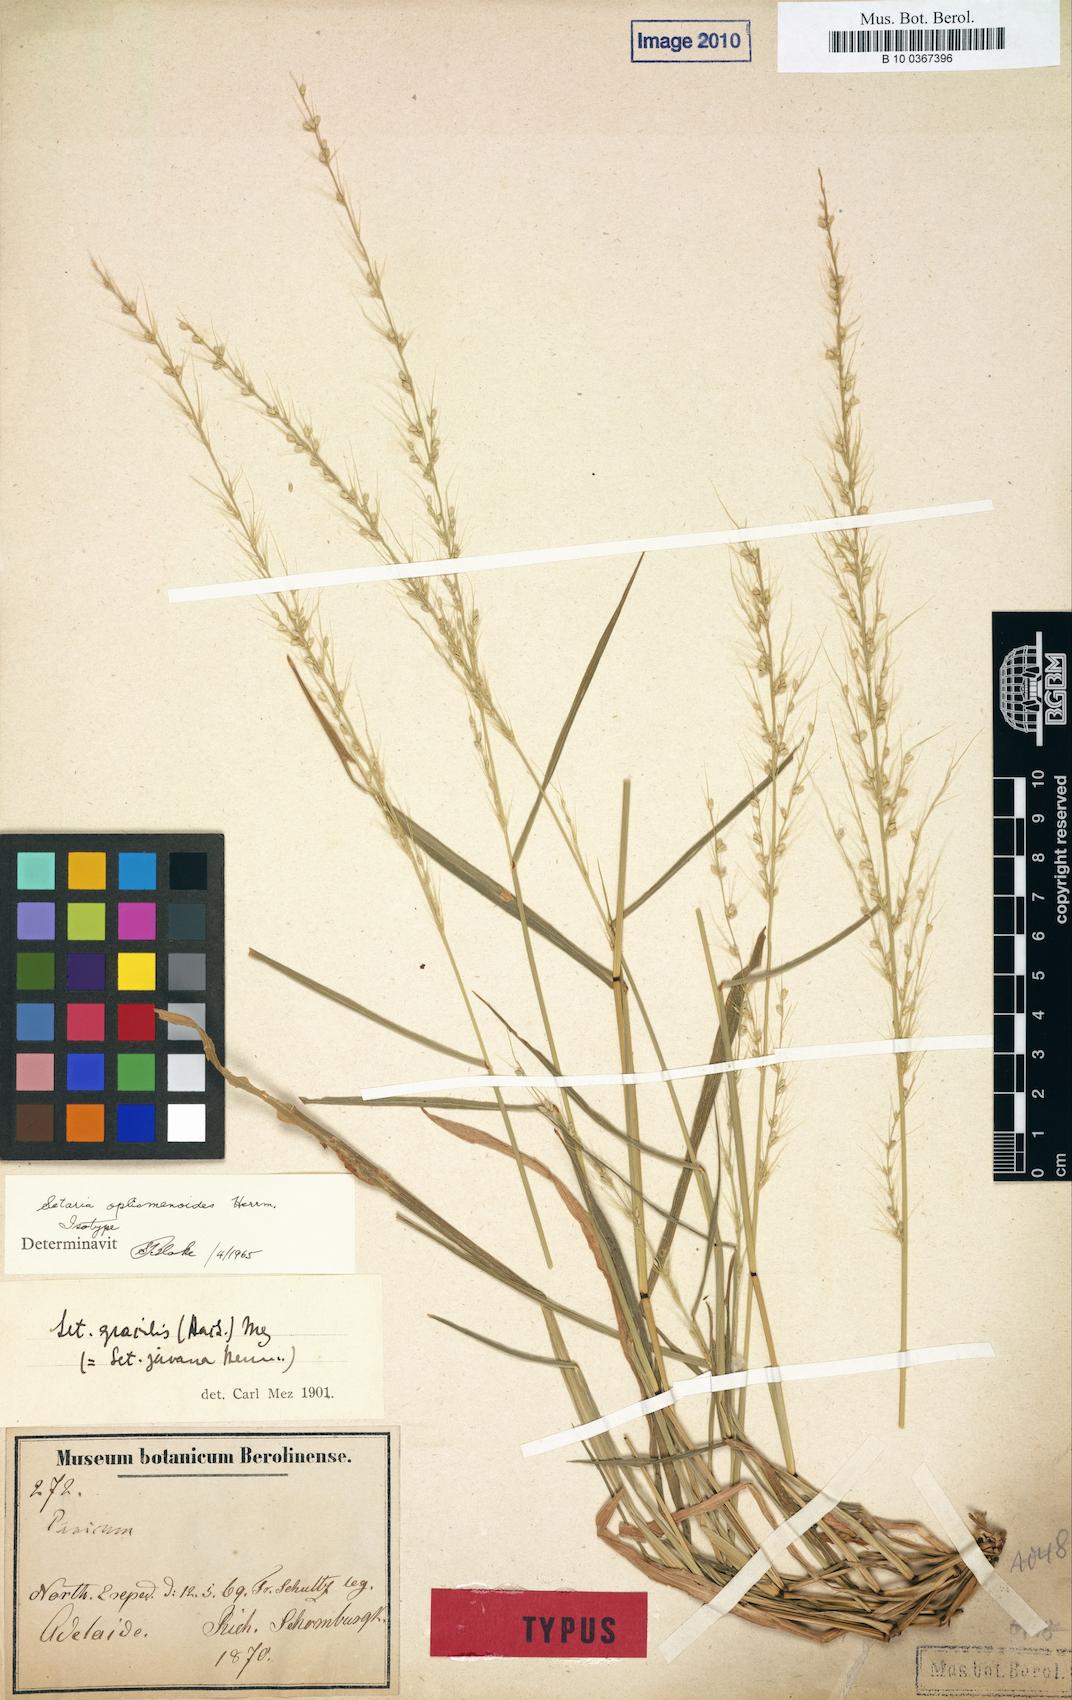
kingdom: Plantae
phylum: Tracheophyta
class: Liliopsida
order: Poales
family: Poaceae
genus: Setaria
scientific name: Setaria oplismenoides
